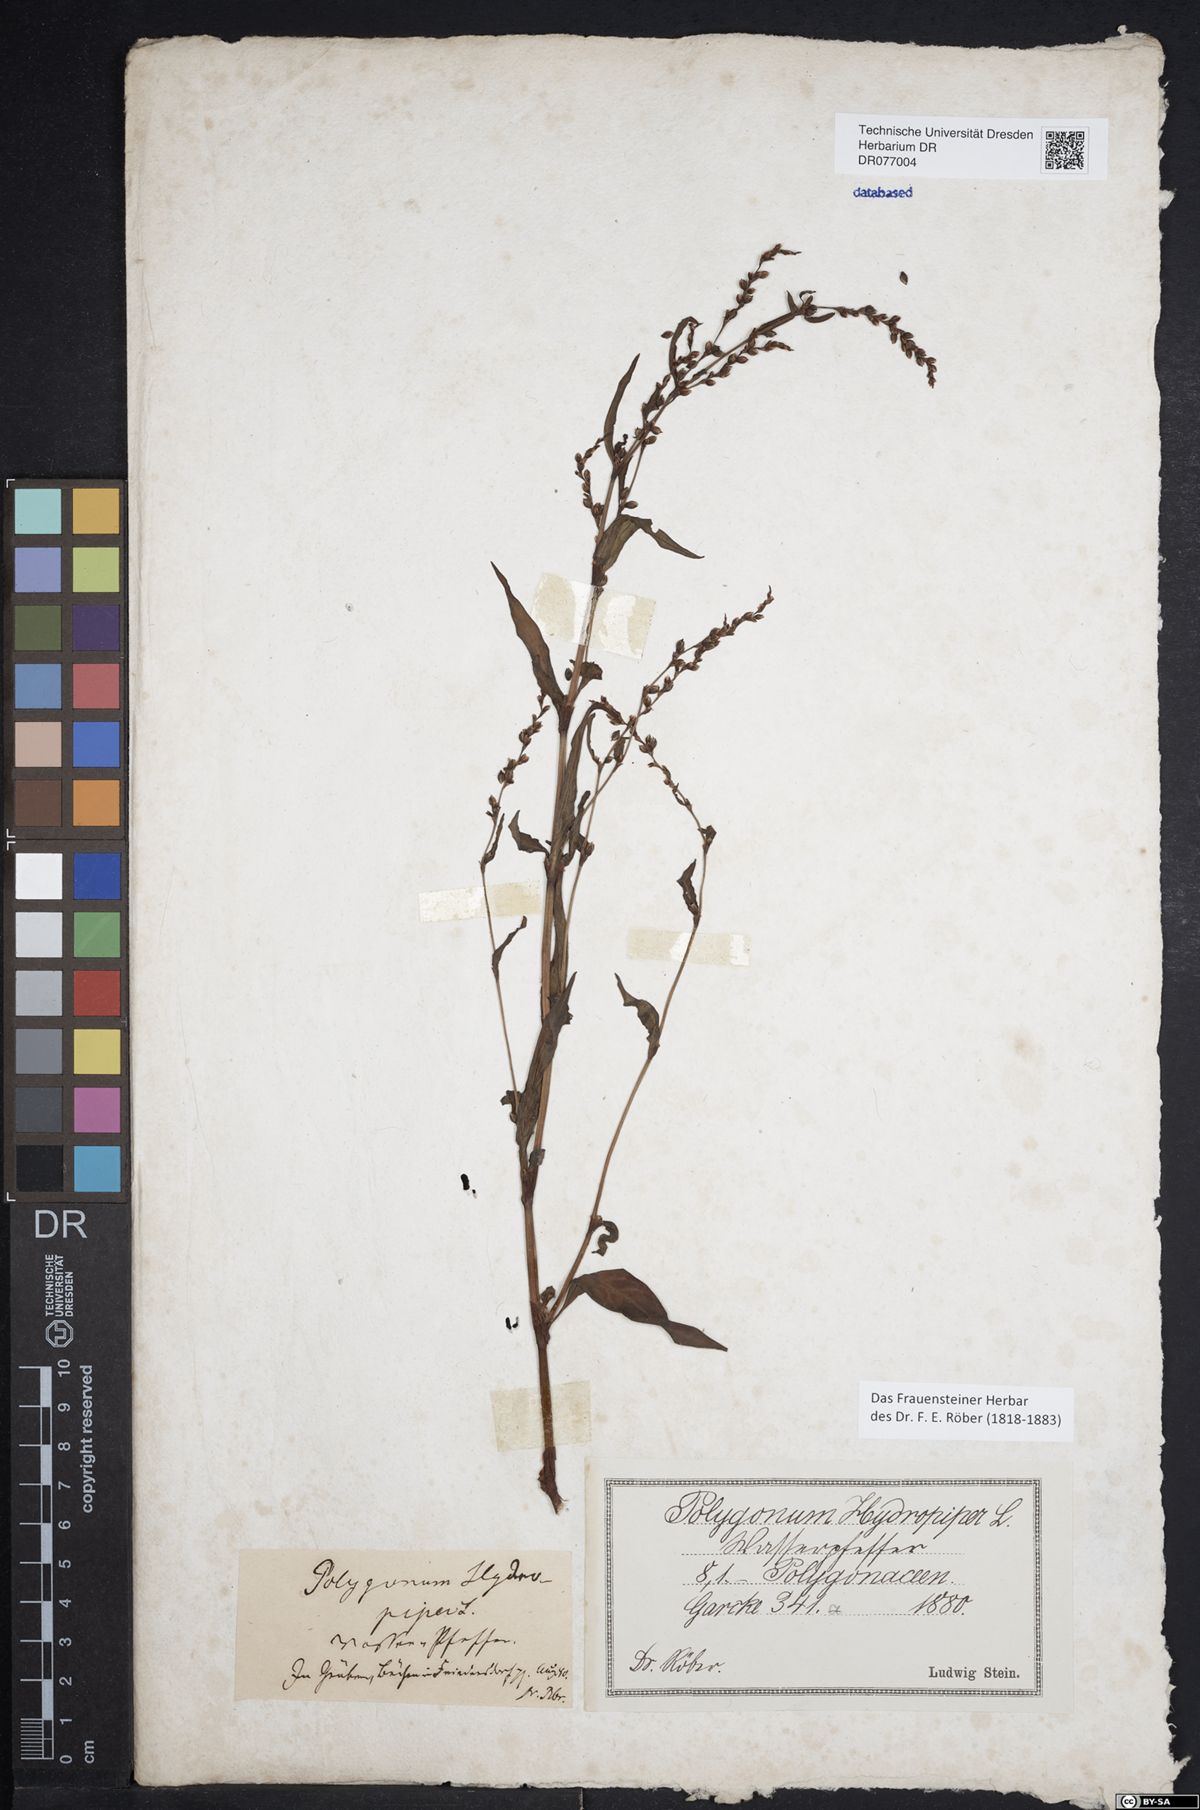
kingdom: Plantae
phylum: Tracheophyta
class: Magnoliopsida
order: Caryophyllales
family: Polygonaceae
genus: Persicaria
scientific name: Persicaria hydropiper
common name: Water-pepper
